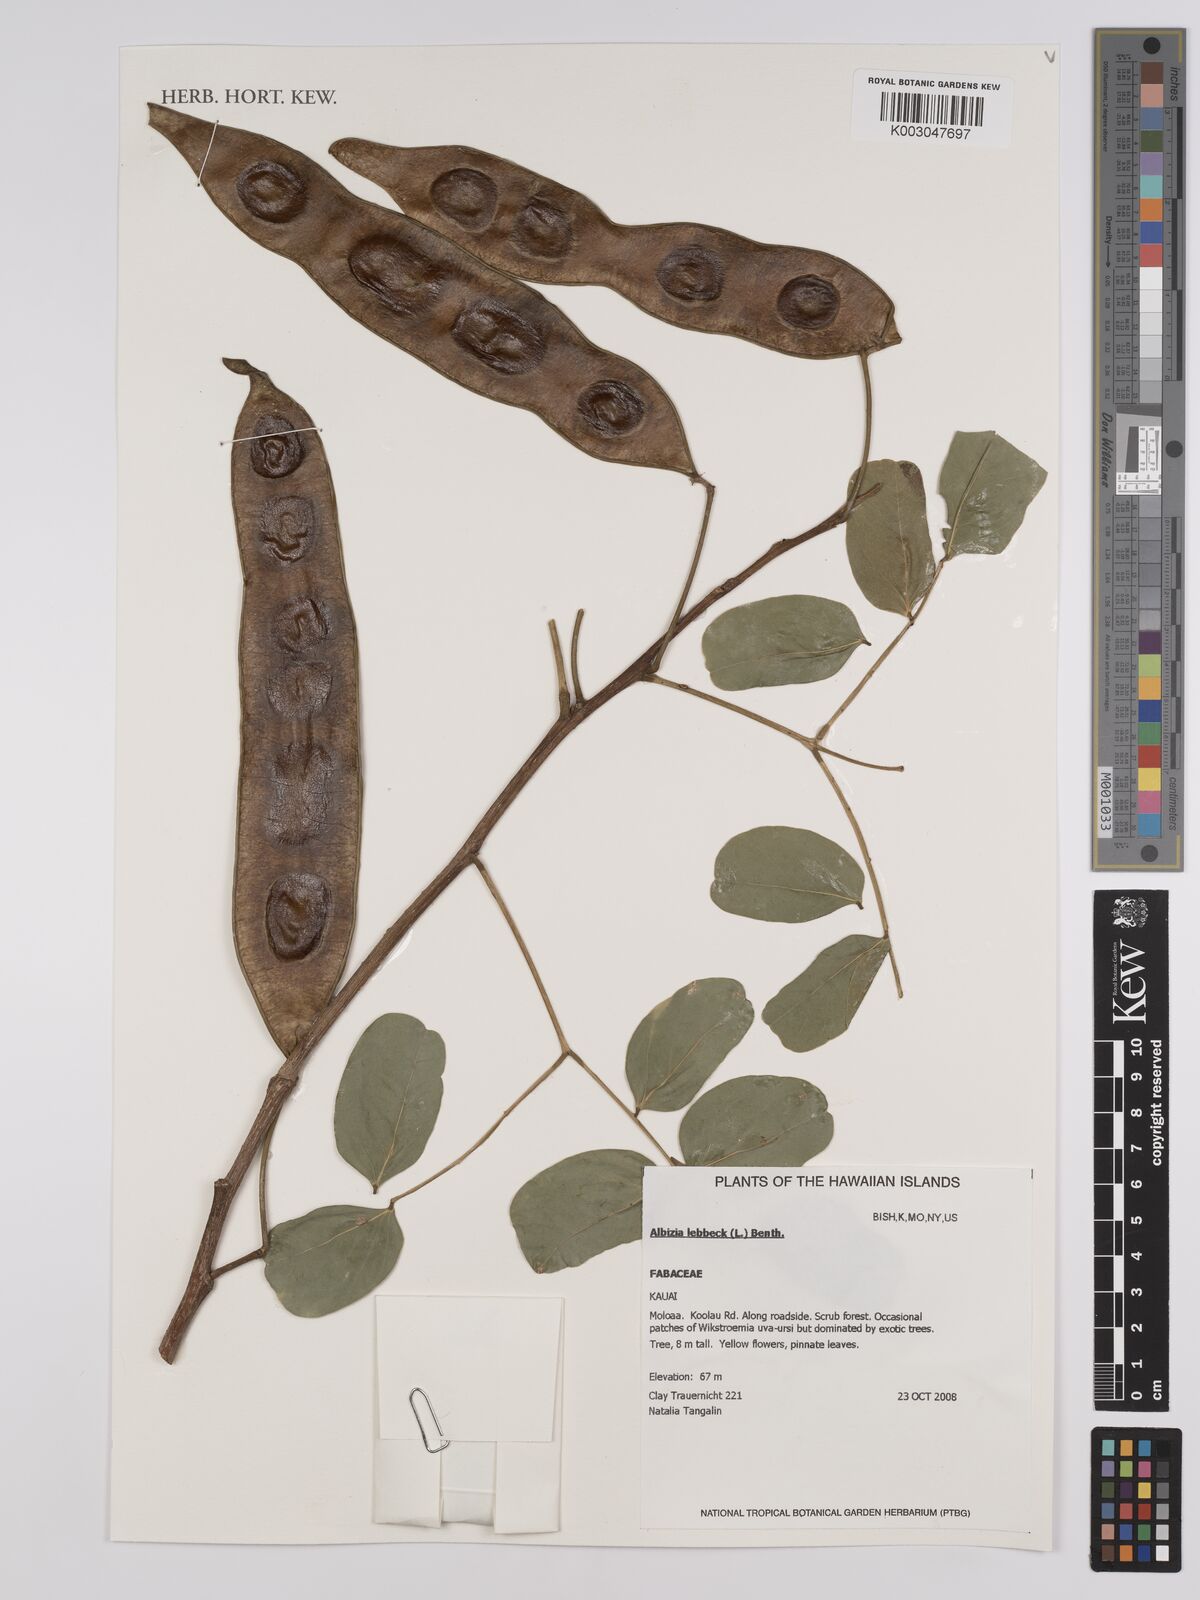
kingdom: Plantae
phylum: Tracheophyta
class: Magnoliopsida
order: Fabales
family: Fabaceae
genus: Albizia
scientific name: Albizia lebbeck
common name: Woman's tongue
